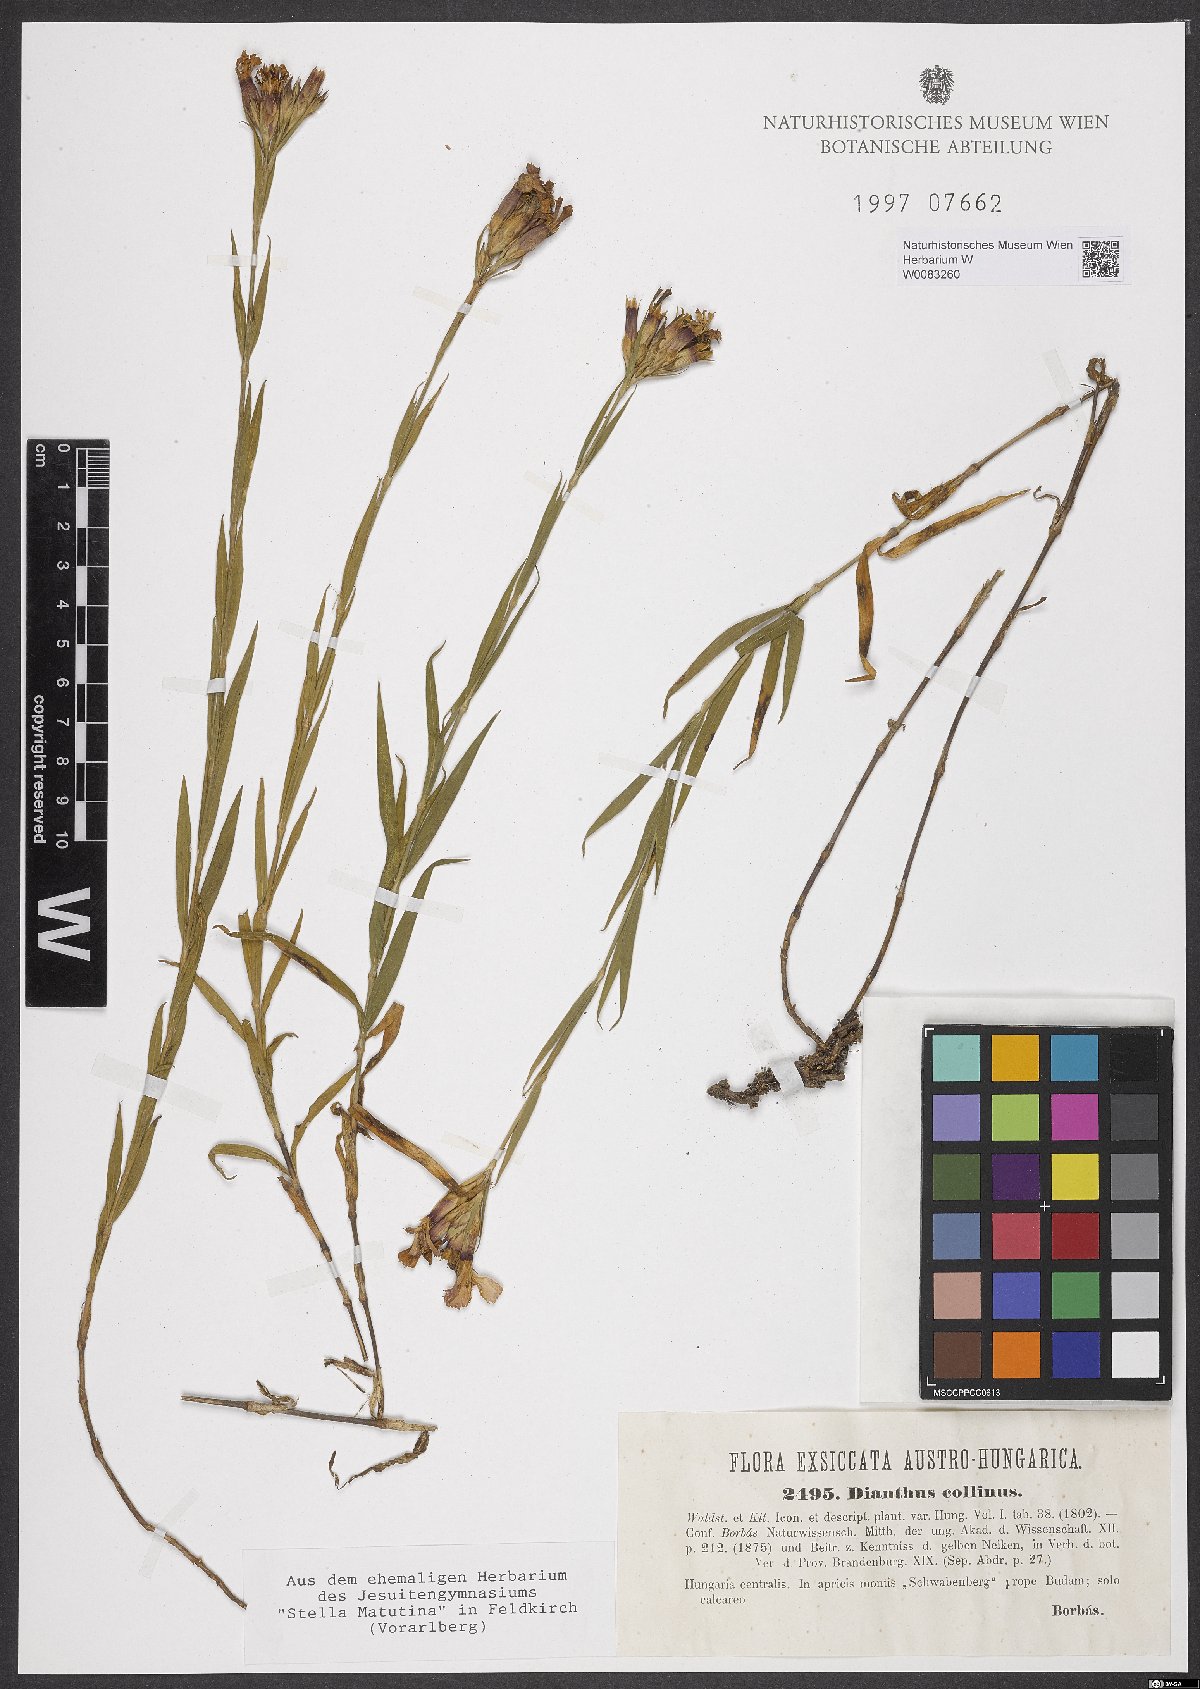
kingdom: Plantae
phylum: Tracheophyta
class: Magnoliopsida
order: Caryophyllales
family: Caryophyllaceae
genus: Dianthus
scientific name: Dianthus collinus
